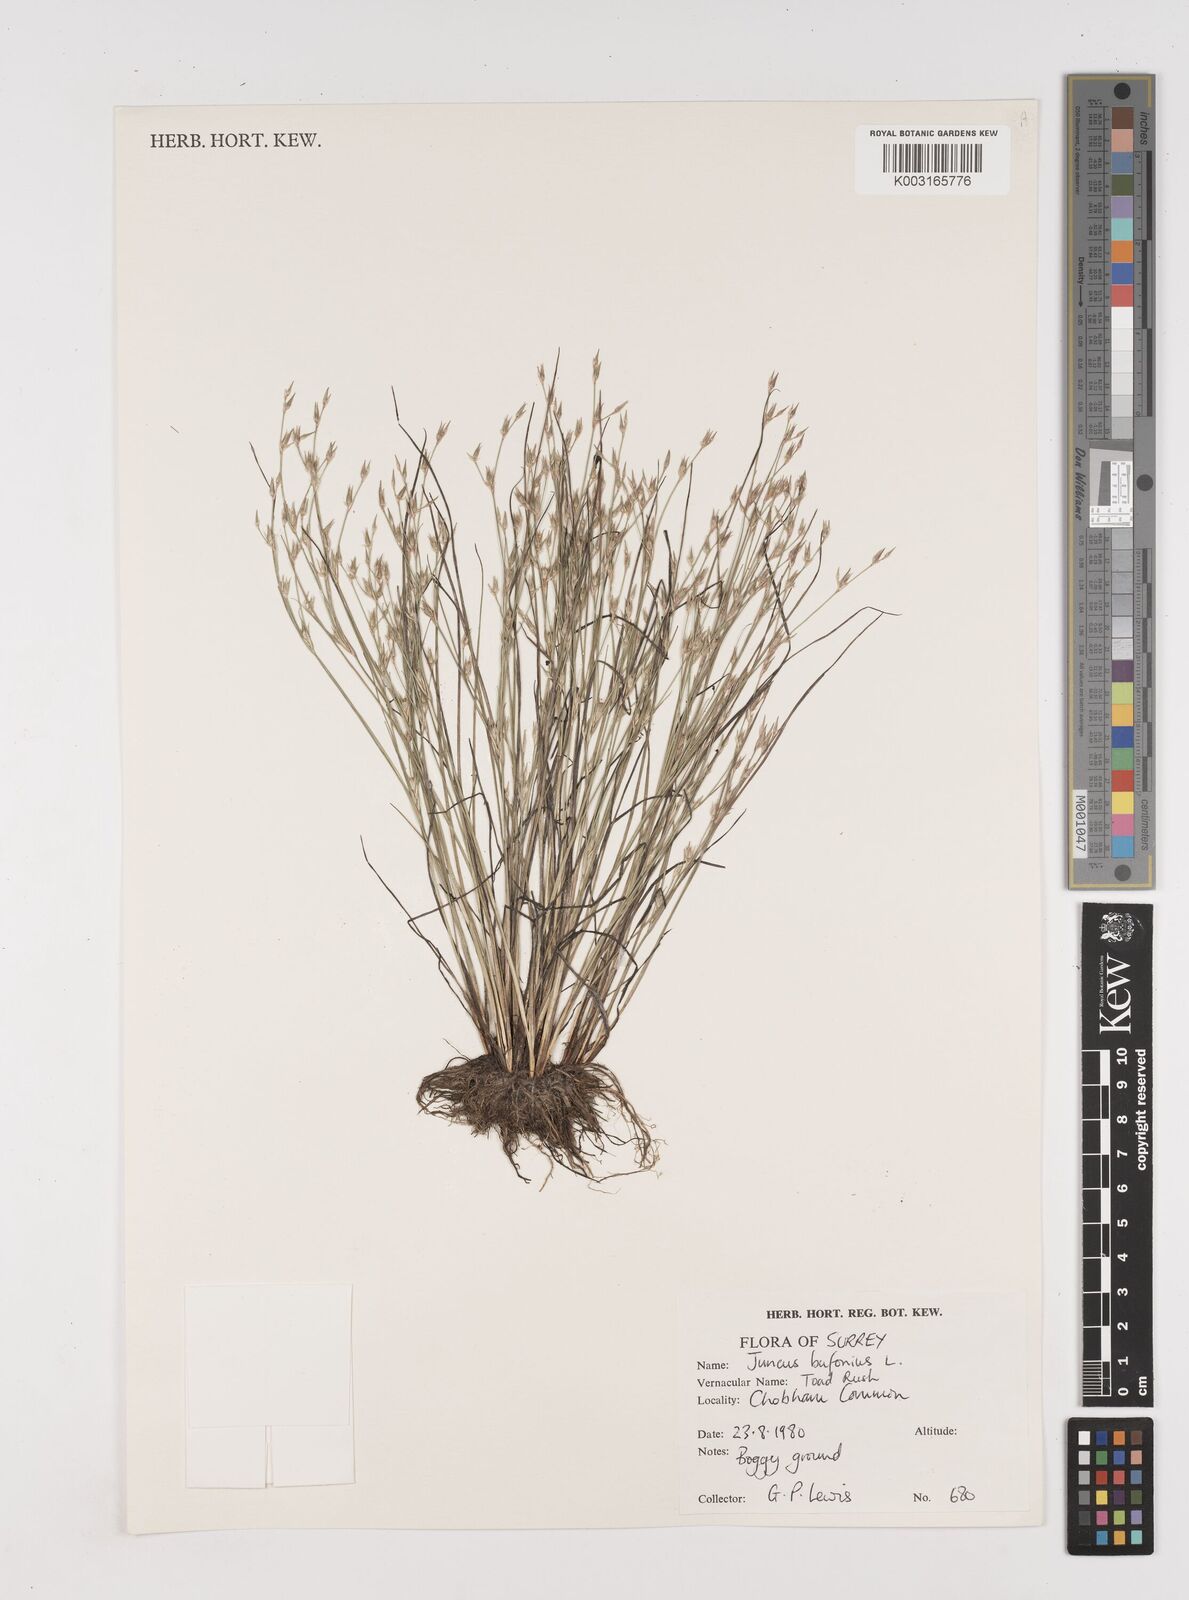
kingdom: Plantae
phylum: Tracheophyta
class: Liliopsida
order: Poales
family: Juncaceae
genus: Juncus
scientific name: Juncus bufonius
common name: Toad rush
